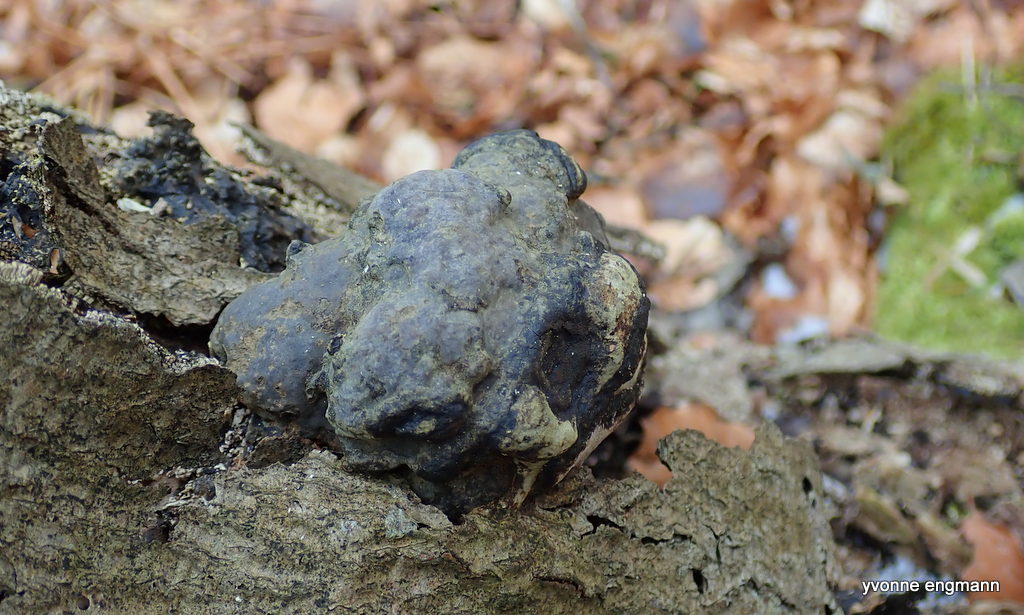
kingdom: Fungi
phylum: Basidiomycota
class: Agaricomycetes
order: Polyporales
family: Polyporaceae
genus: Fomes
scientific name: Fomes fomentarius
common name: tøndersvamp
